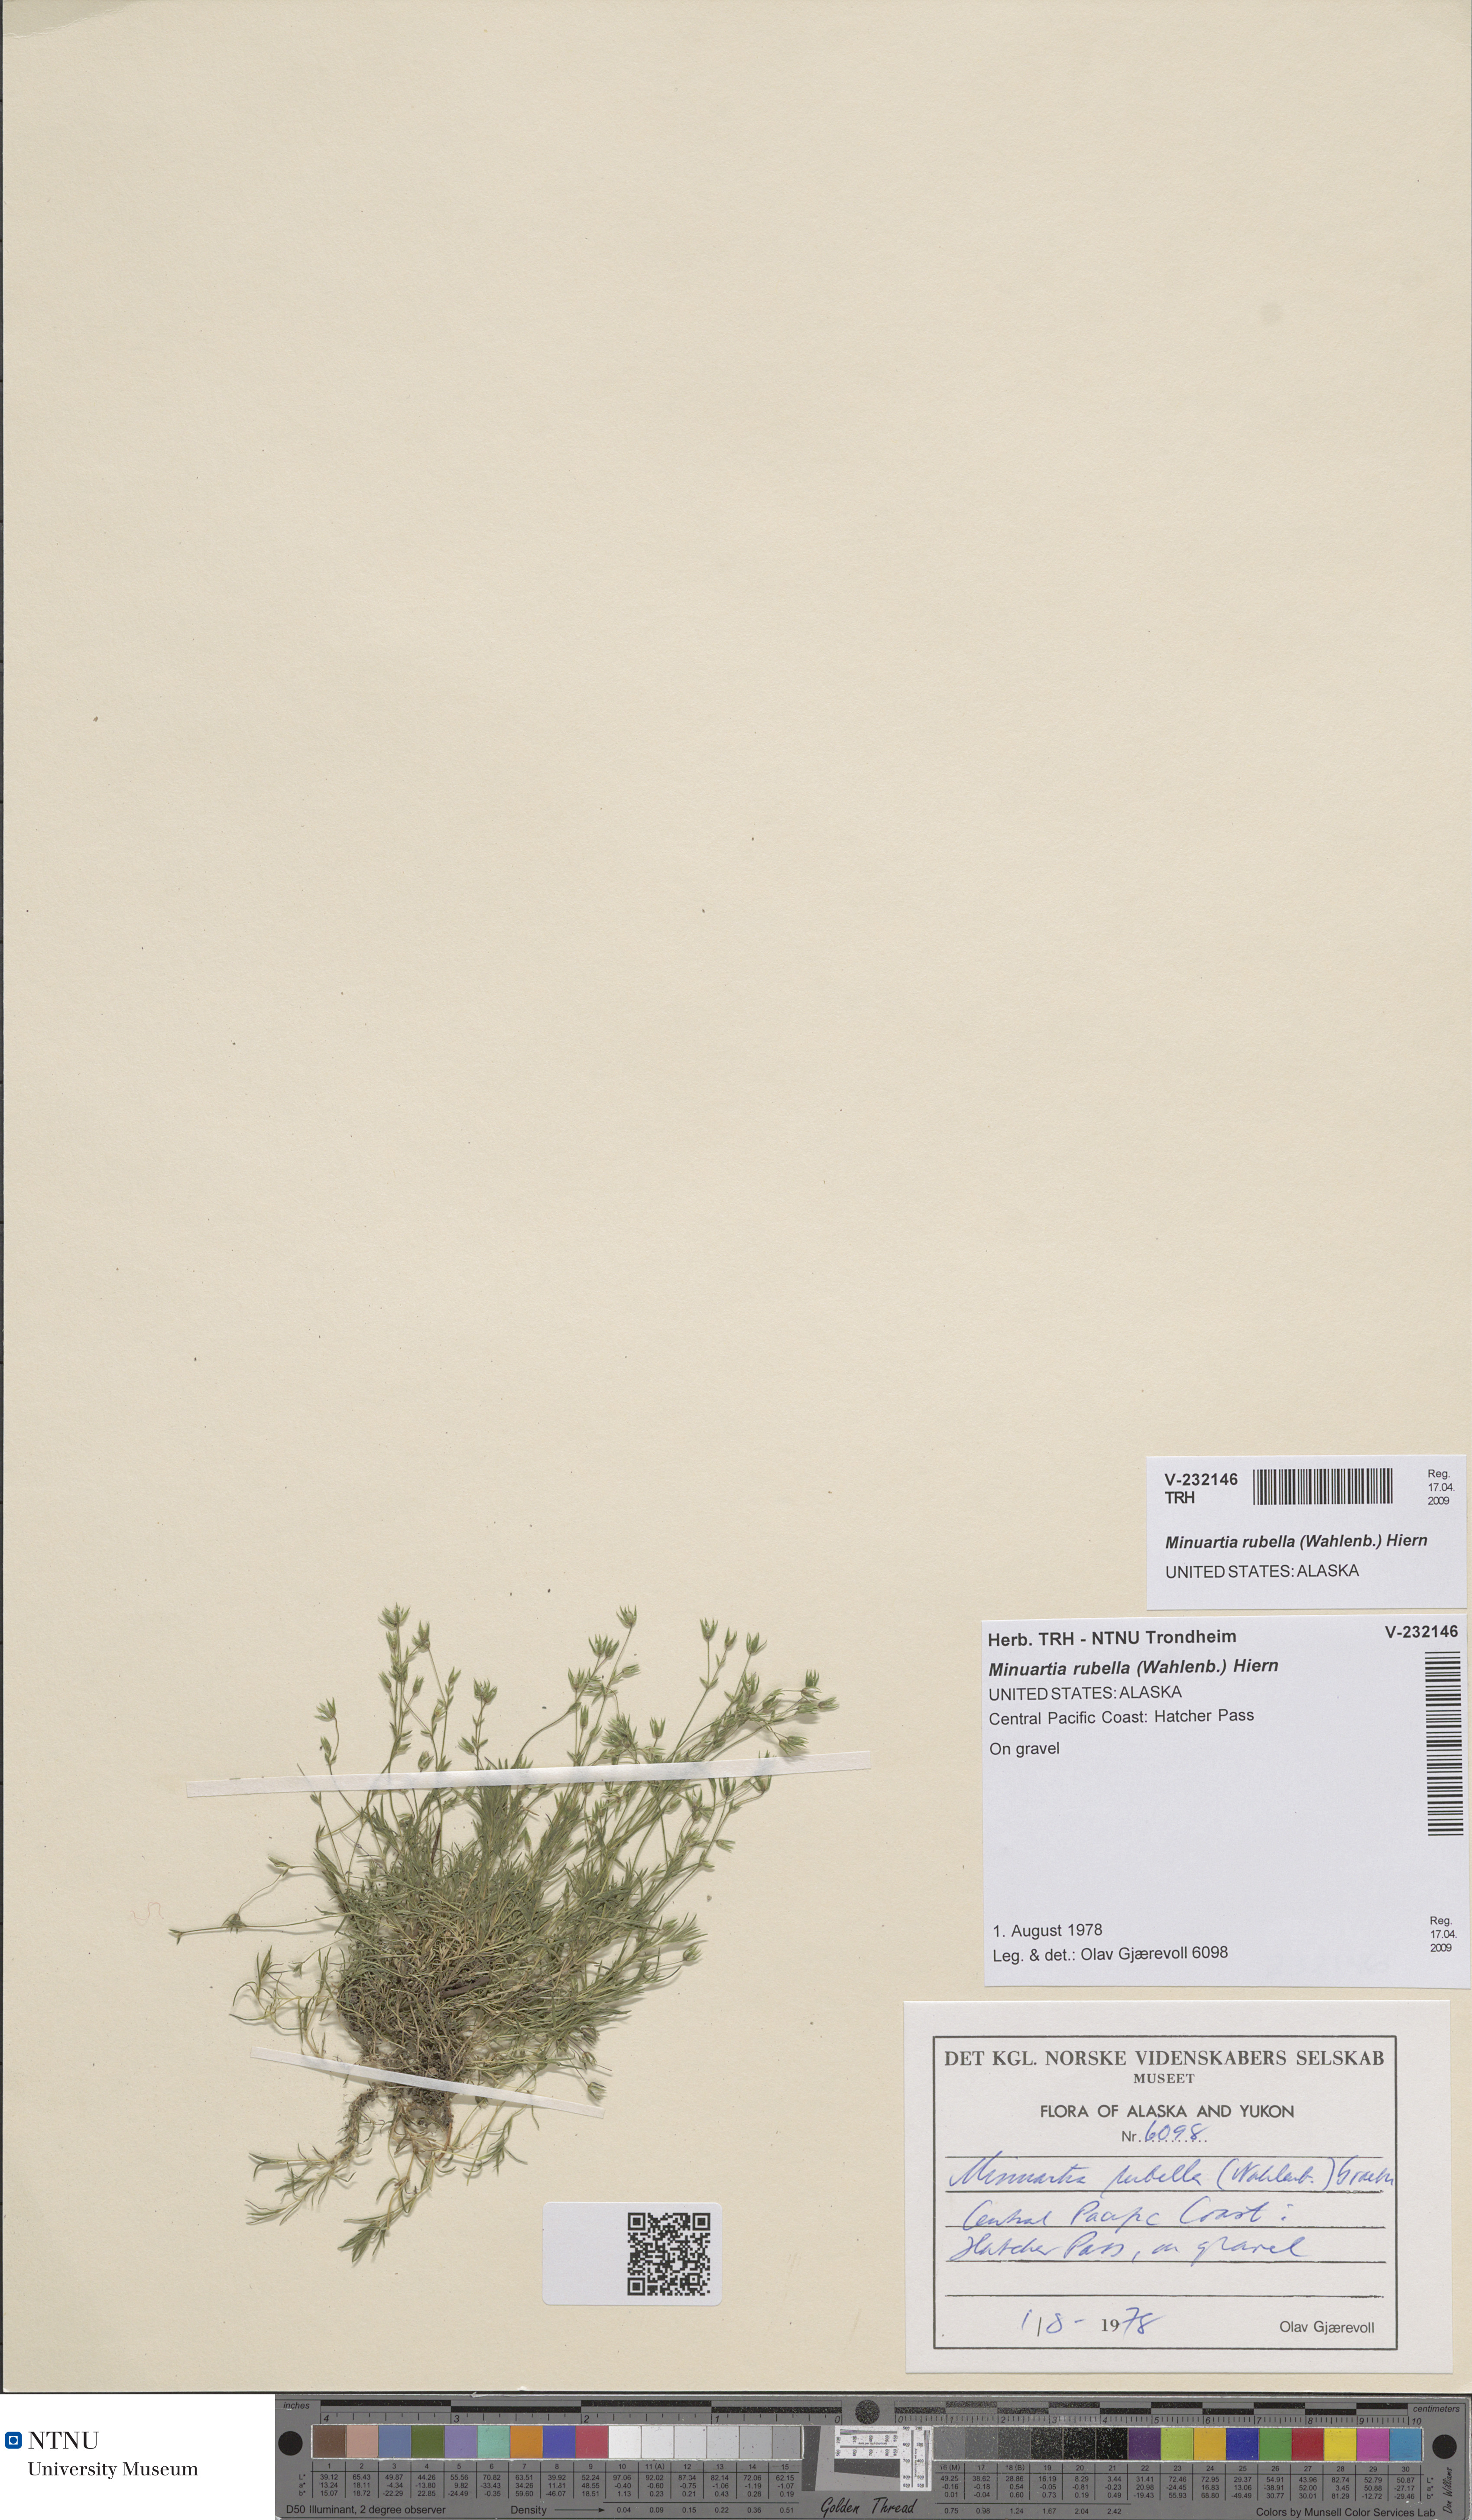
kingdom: Plantae
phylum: Tracheophyta
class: Magnoliopsida
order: Caryophyllales
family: Caryophyllaceae
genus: Sabulina
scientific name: Sabulina rubella
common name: Beautiful sandwort
